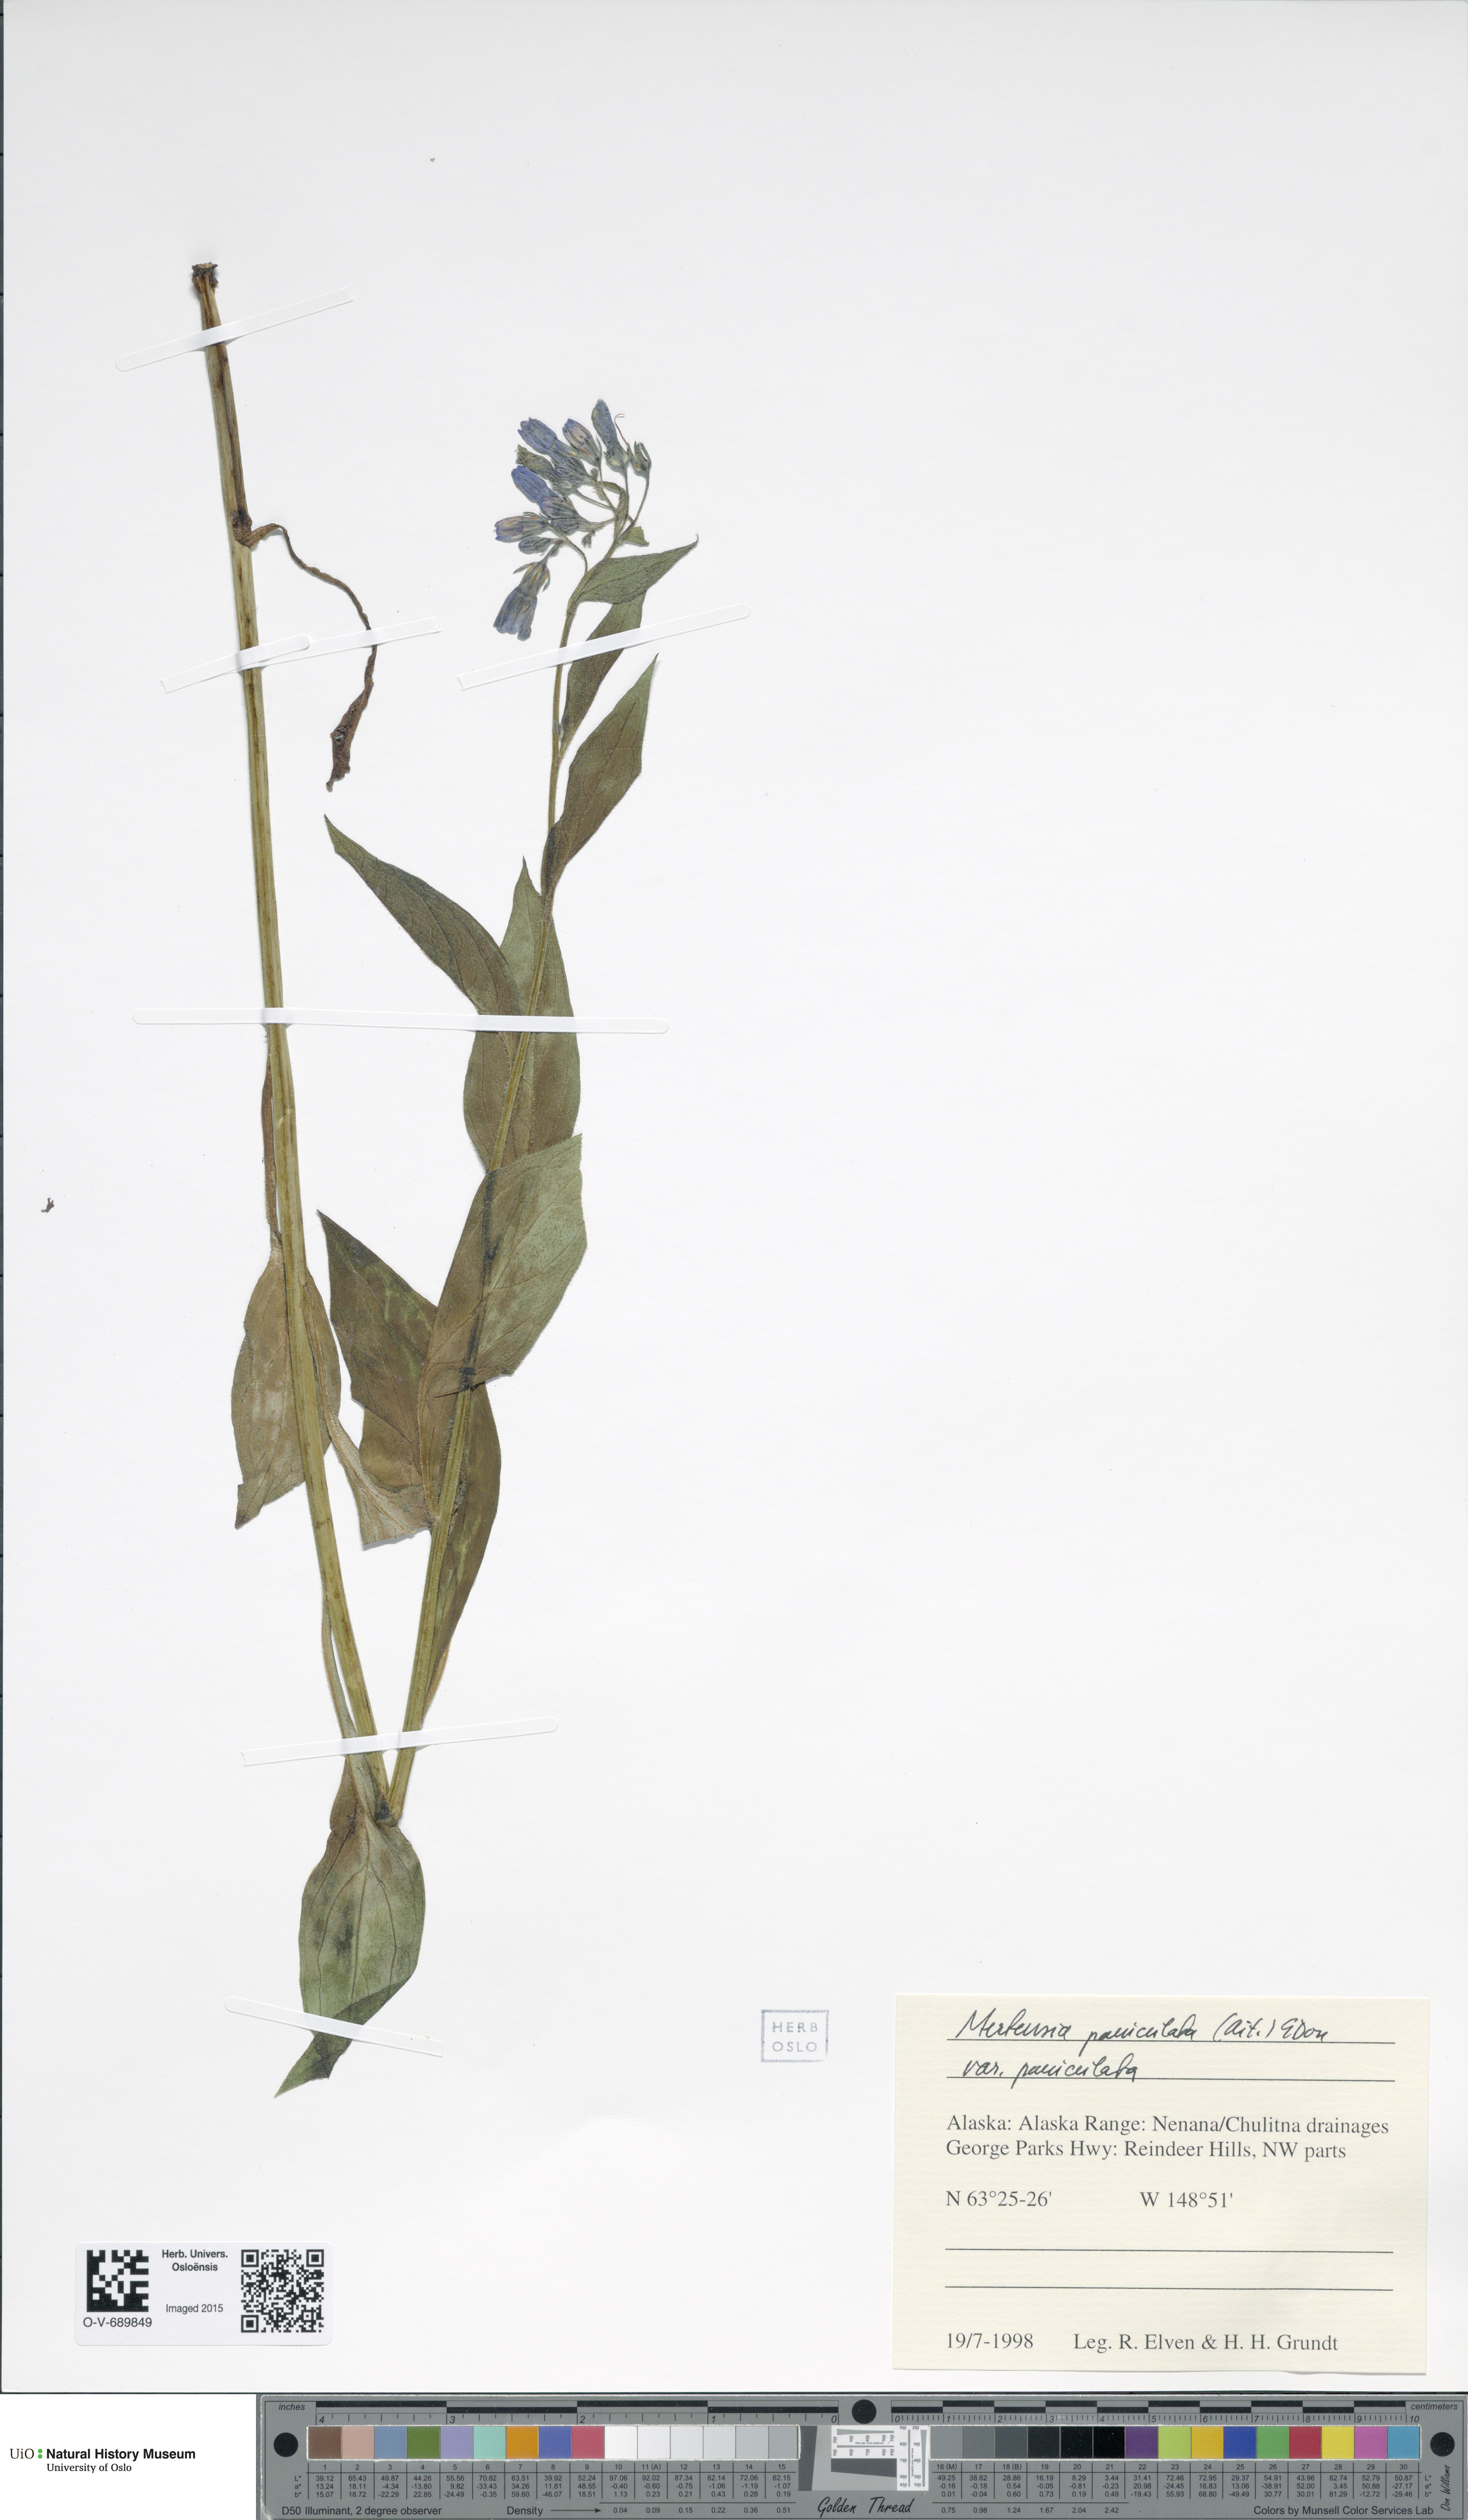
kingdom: Plantae
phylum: Tracheophyta
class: Magnoliopsida
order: Boraginales
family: Boraginaceae
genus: Mertensia
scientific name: Mertensia paniculata
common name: Panicled bluebells
